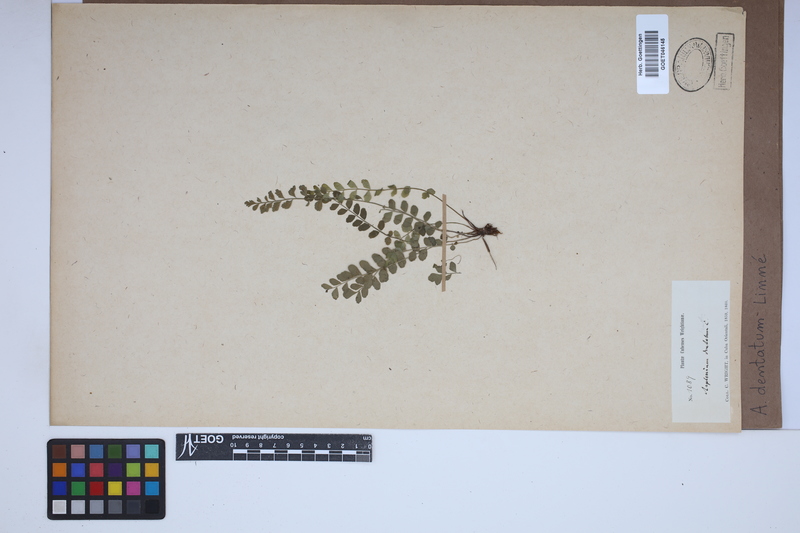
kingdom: Plantae
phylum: Tracheophyta
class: Polypodiopsida
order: Polypodiales
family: Aspleniaceae
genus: Asplenium
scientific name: Asplenium dentatum
